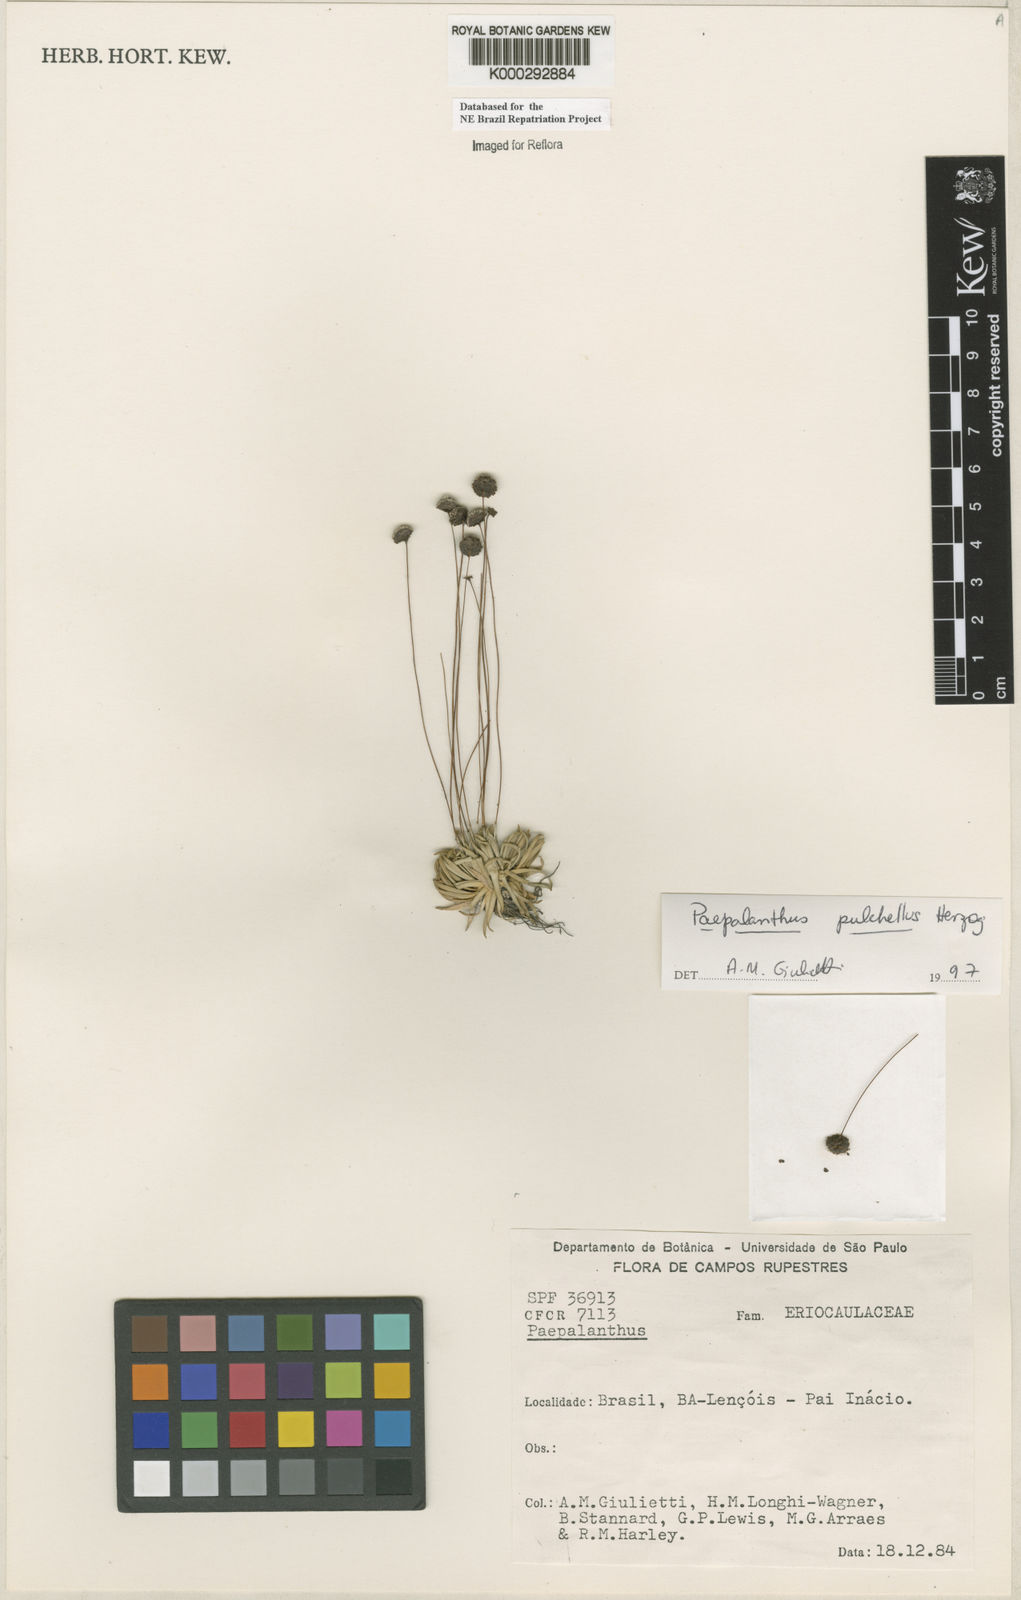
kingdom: Plantae
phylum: Tracheophyta
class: Liliopsida
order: Poales
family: Eriocaulaceae
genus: Paepalanthus
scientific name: Paepalanthus pulchellus
